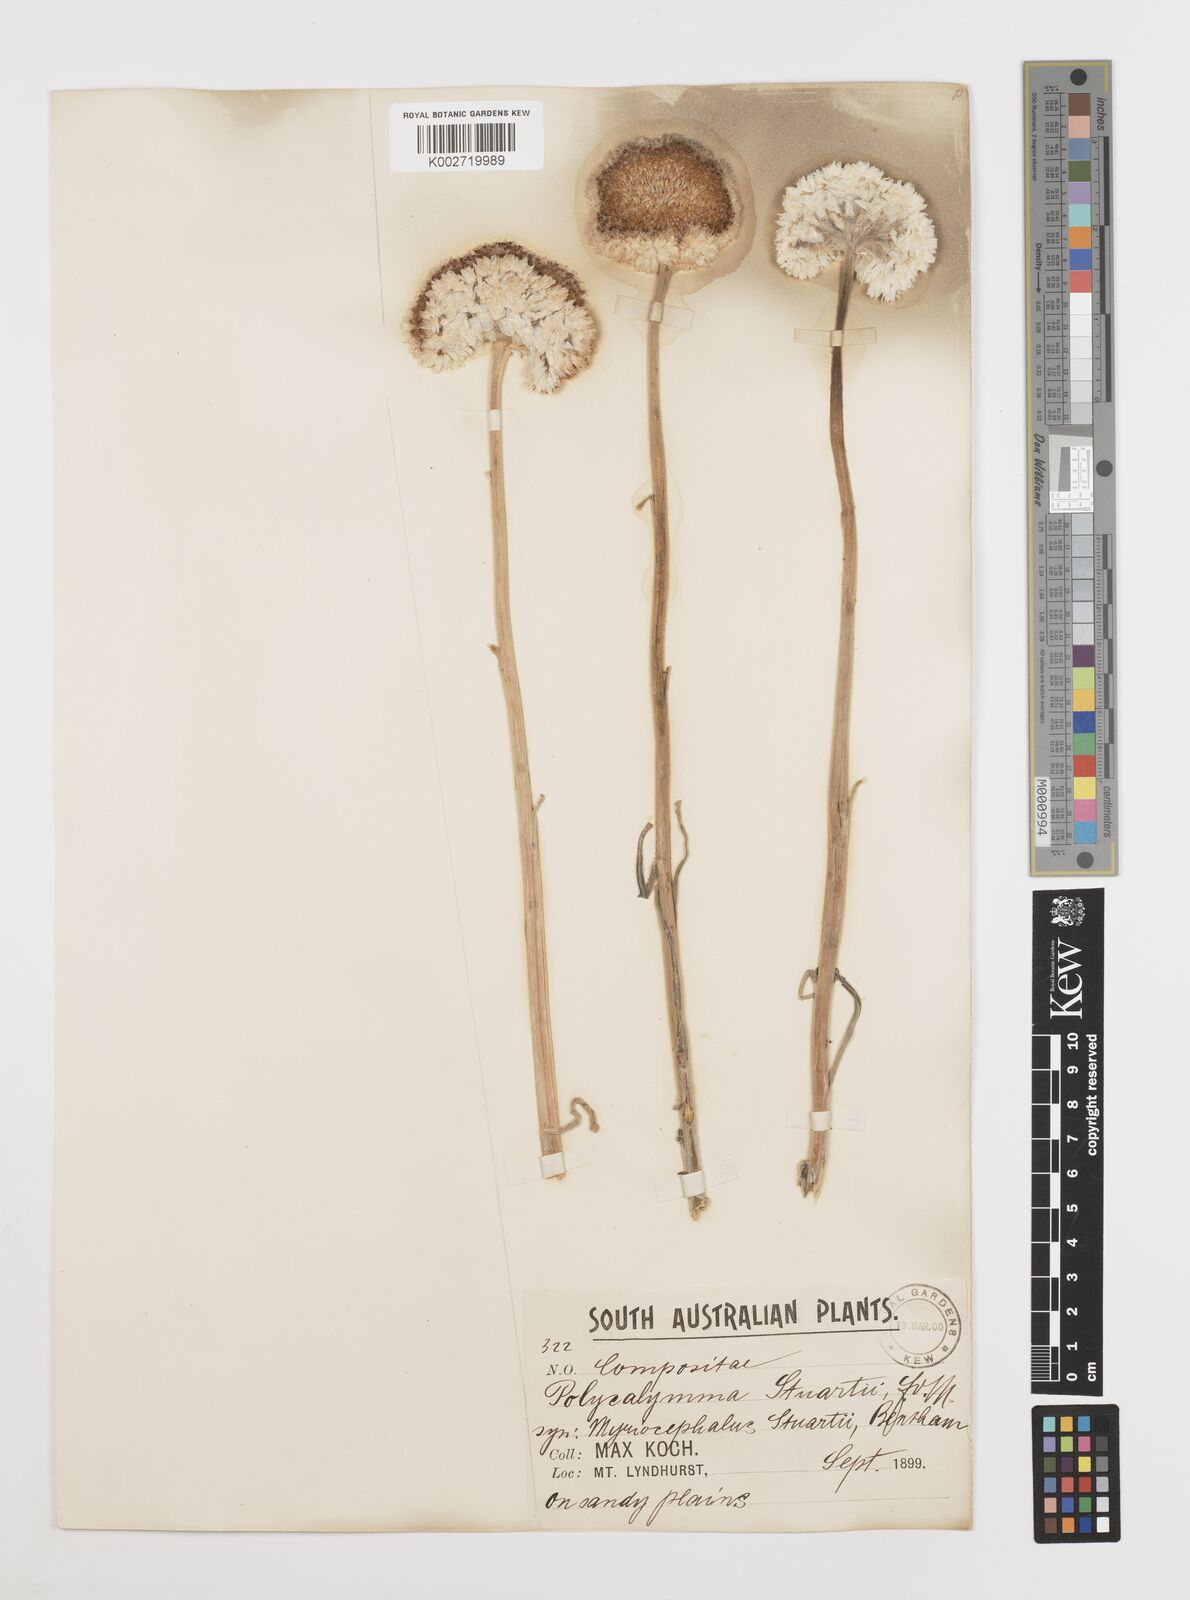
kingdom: Plantae
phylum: Tracheophyta
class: Magnoliopsida
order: Asterales
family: Asteraceae
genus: Polycalymma
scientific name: Polycalymma stuartii
